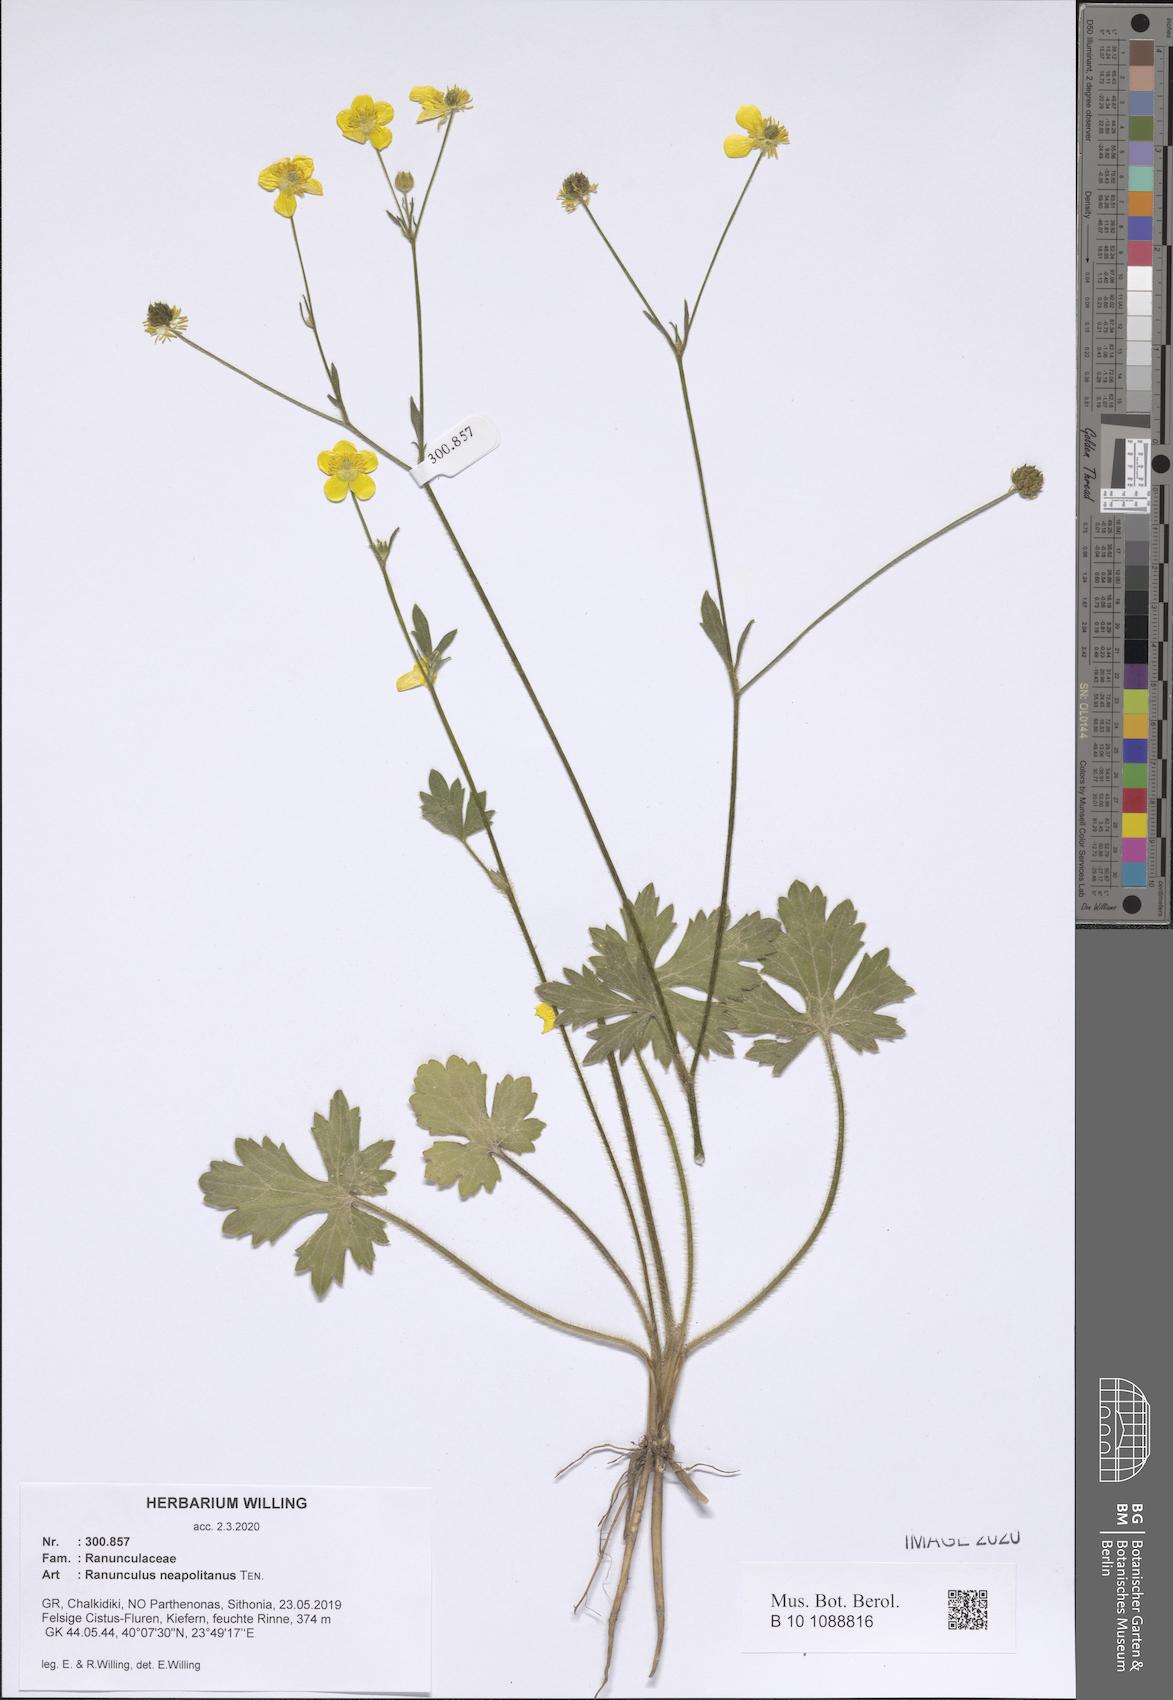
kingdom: Plantae
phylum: Tracheophyta
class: Magnoliopsida
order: Ranunculales
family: Ranunculaceae
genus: Ranunculus
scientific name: Ranunculus neapolitanus
